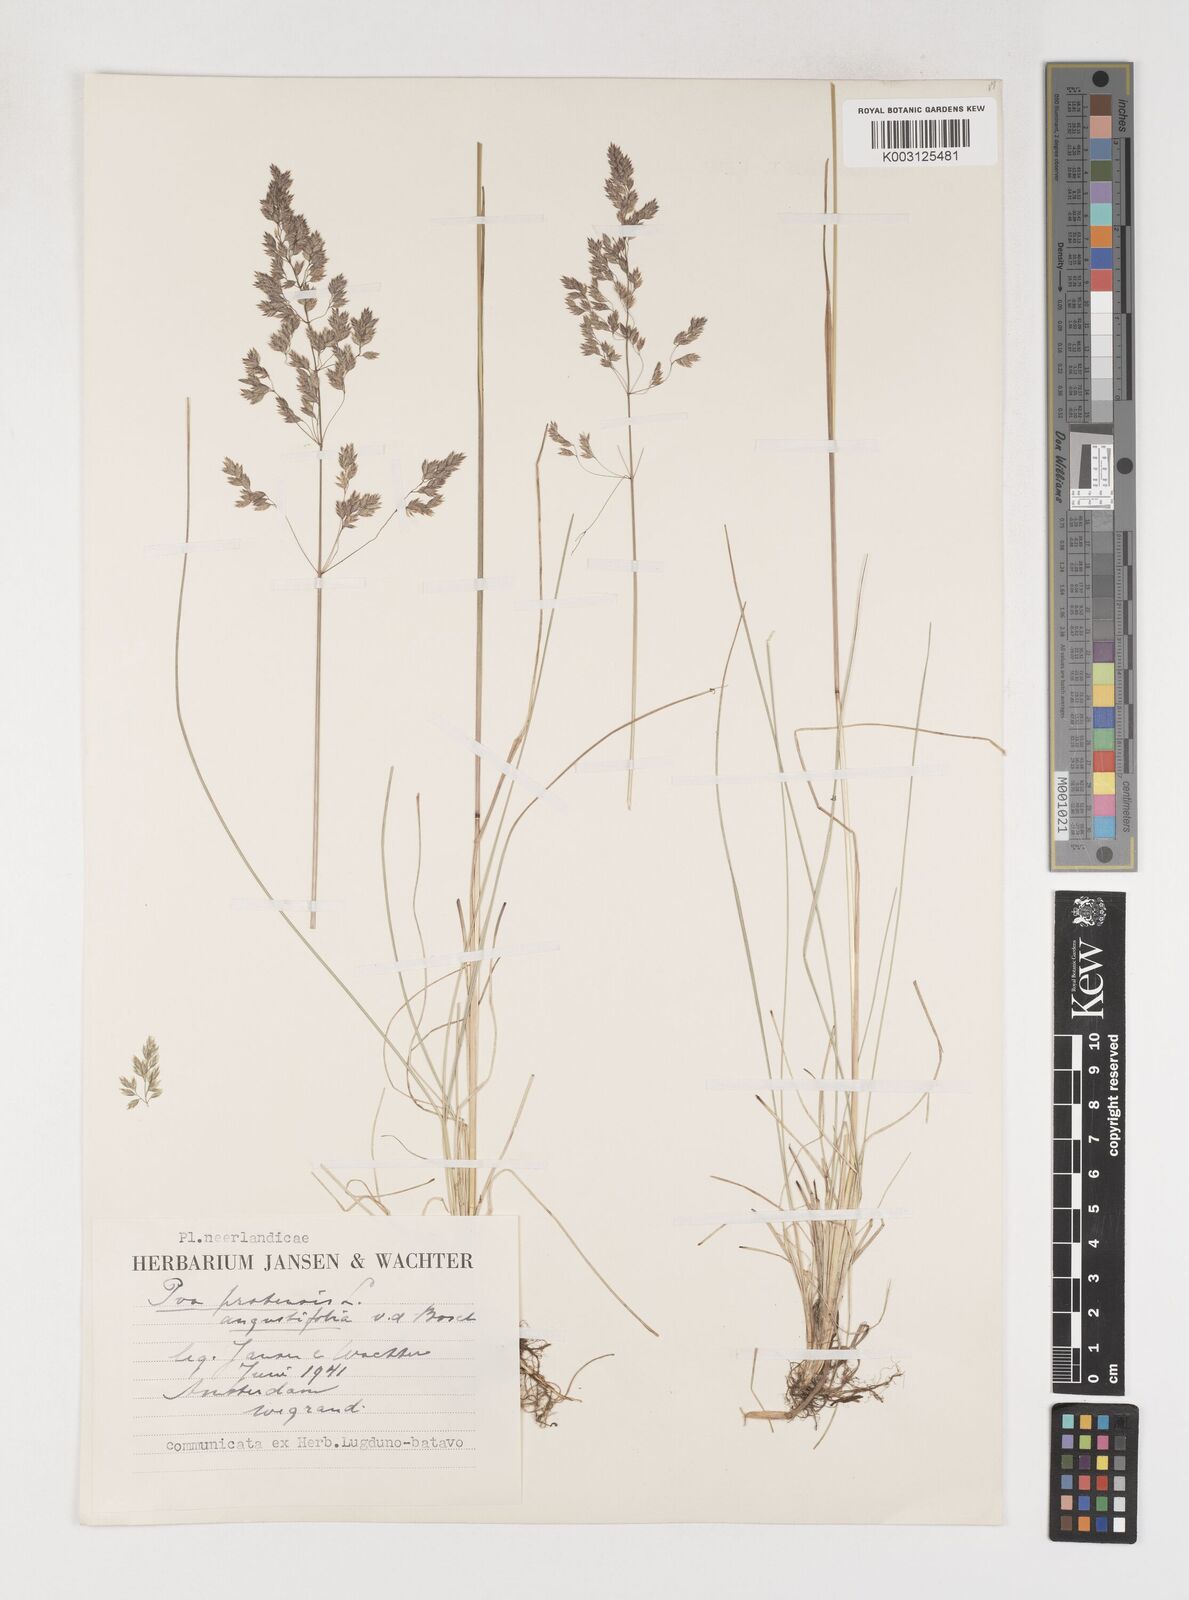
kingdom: Plantae
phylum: Tracheophyta
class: Liliopsida
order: Poales
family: Poaceae
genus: Poa
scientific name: Poa angustifolia
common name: Narrow-leaved meadow-grass
